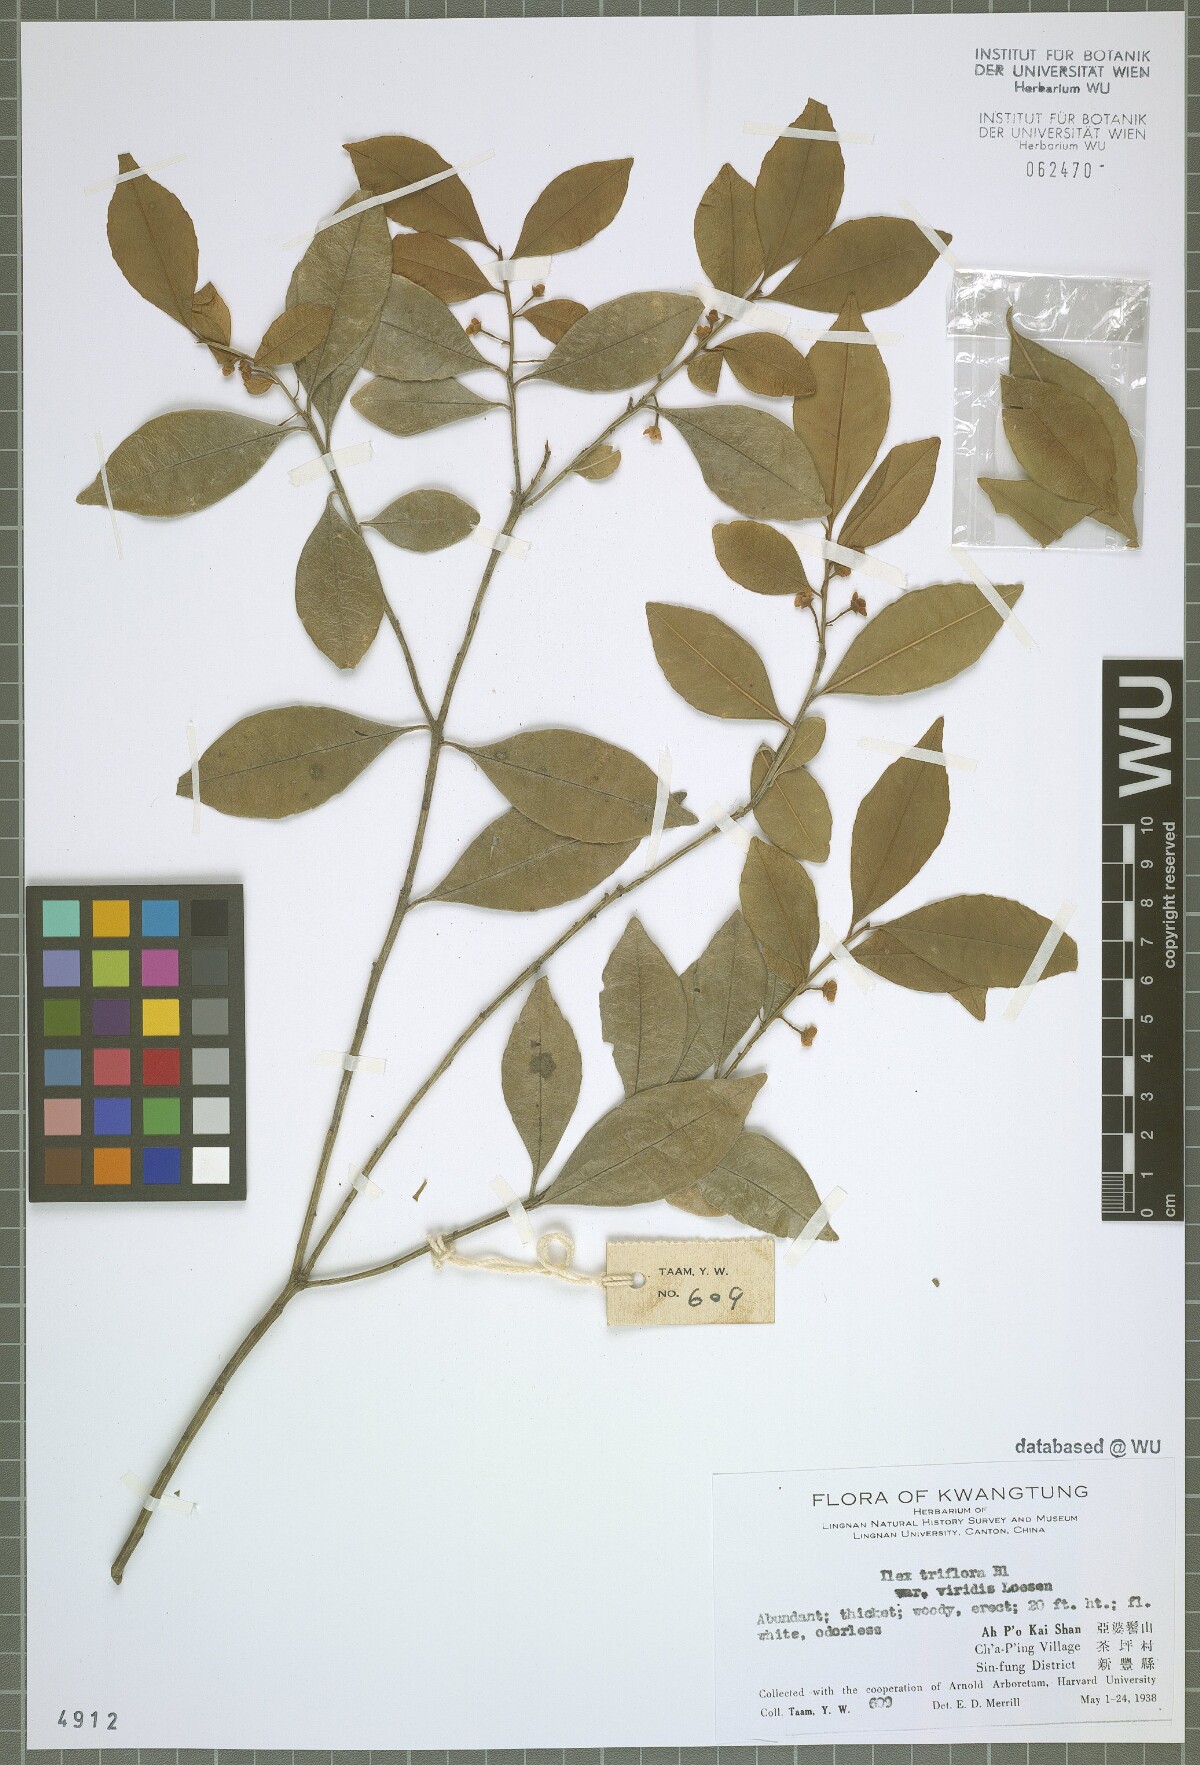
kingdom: Plantae
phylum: Tracheophyta
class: Magnoliopsida
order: Aquifoliales
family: Aquifoliaceae
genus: Ilex
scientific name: Ilex viridis
